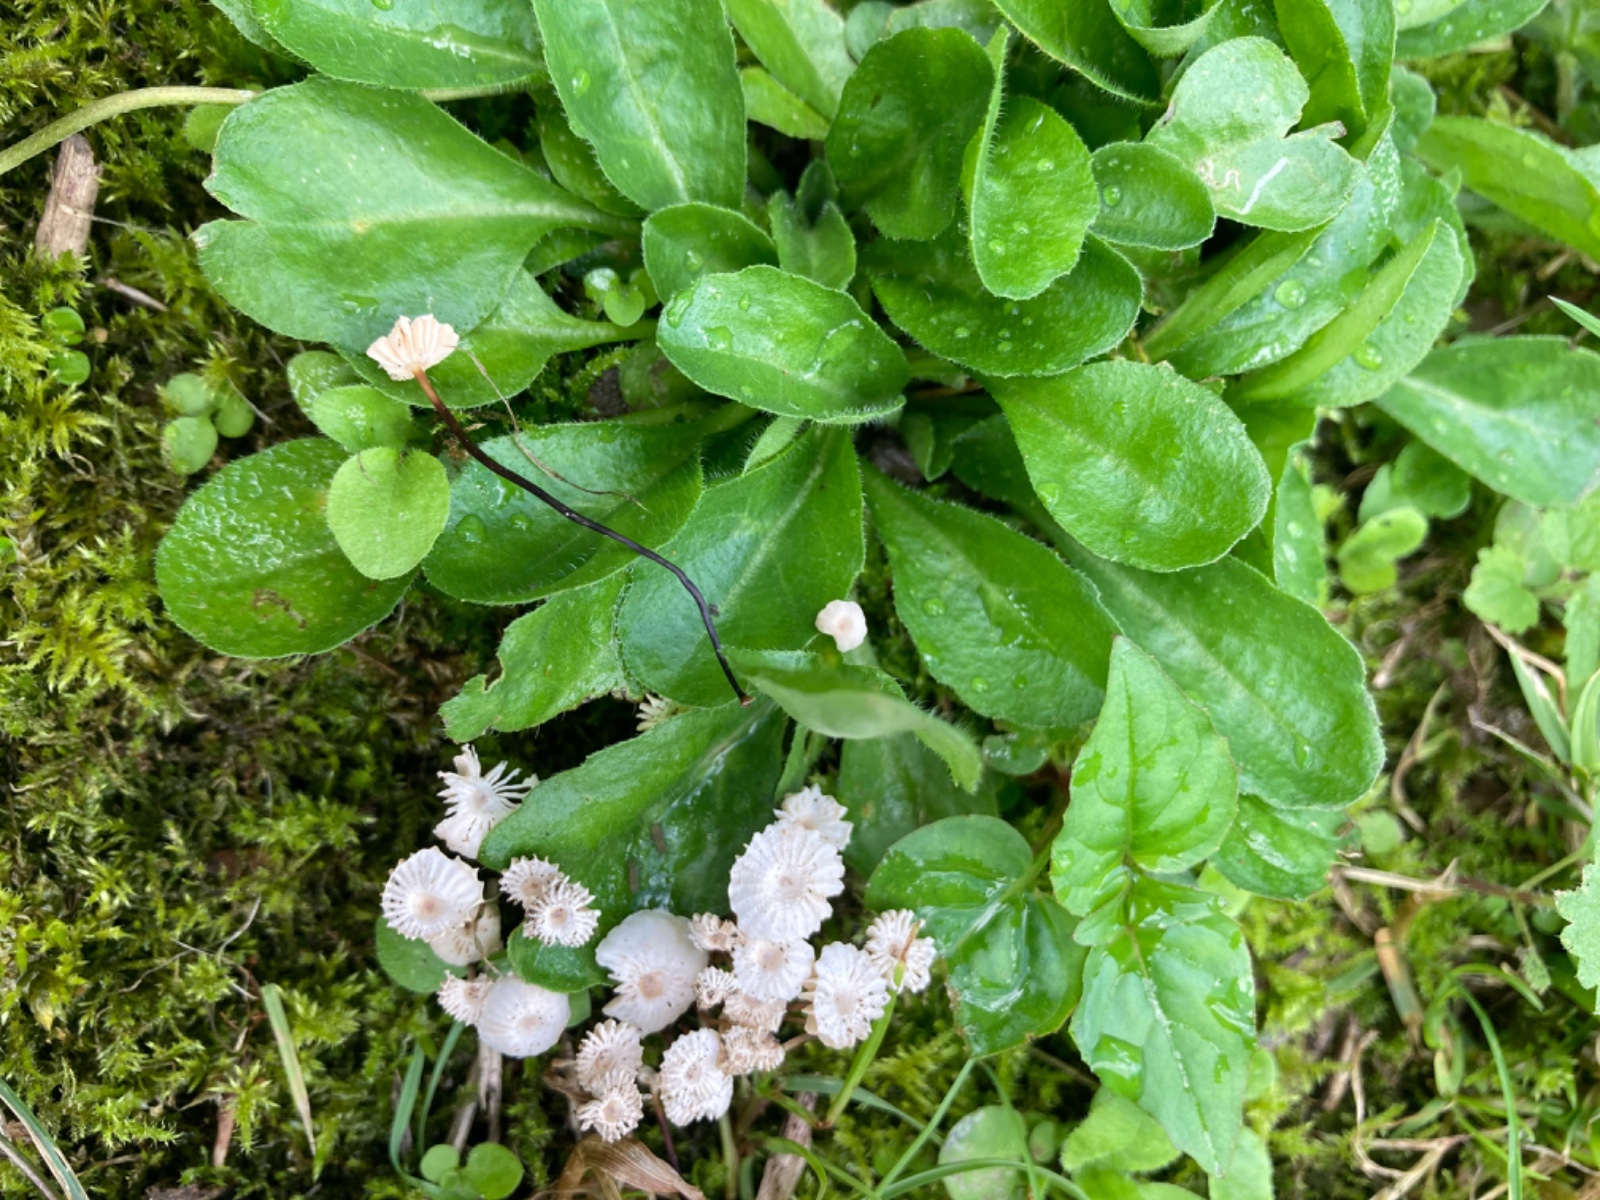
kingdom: Fungi
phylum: Basidiomycota
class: Agaricomycetes
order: Agaricales
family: Marasmiaceae
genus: Marasmius
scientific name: Marasmius rotula
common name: hjul-bruskhat
